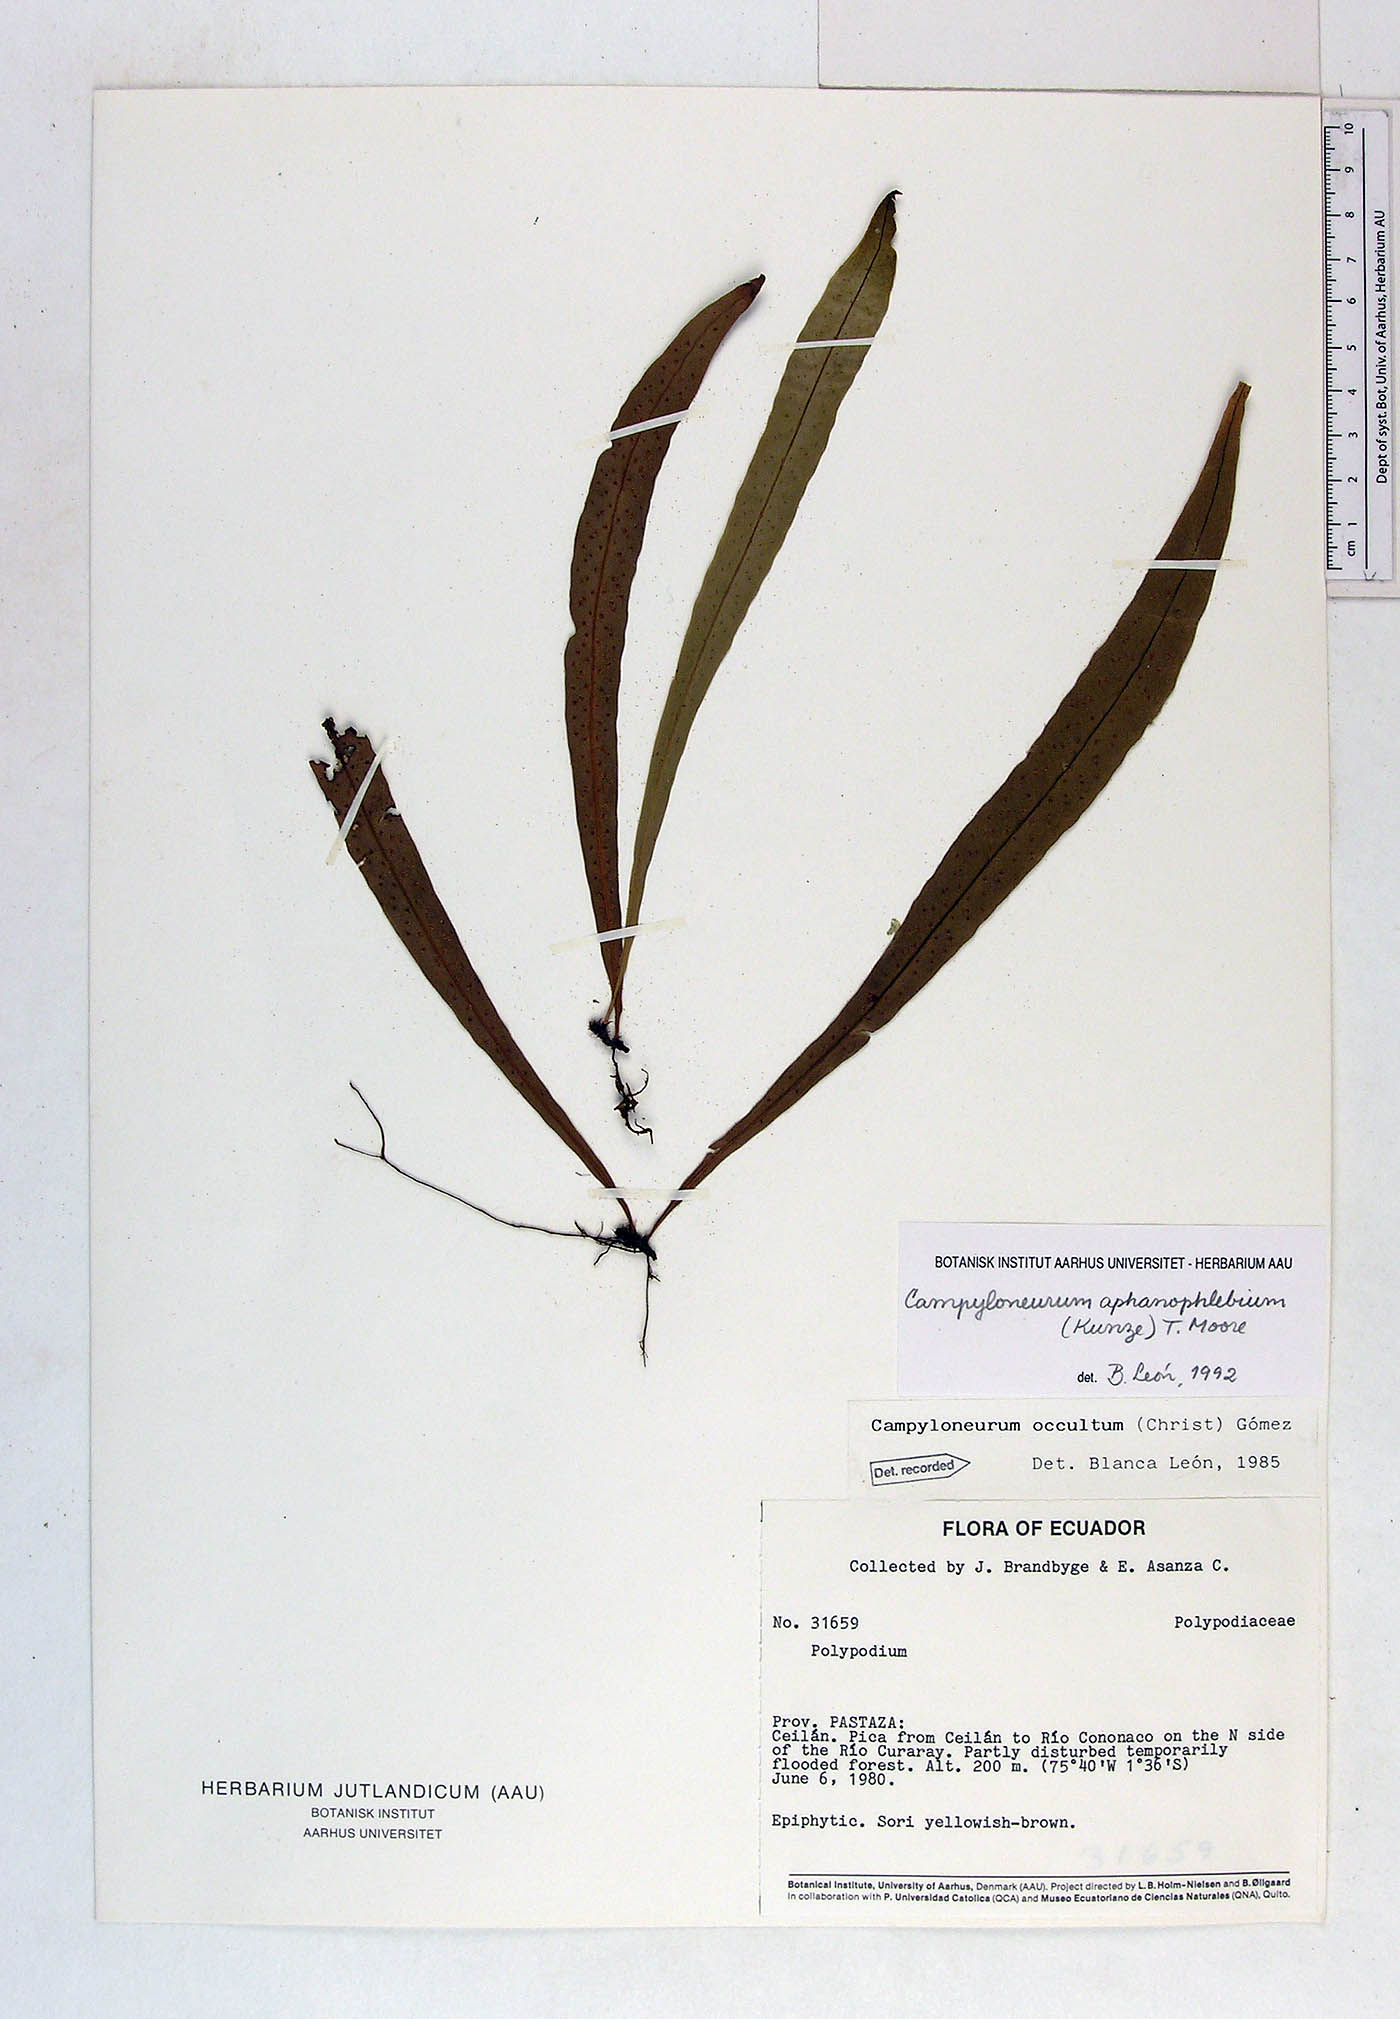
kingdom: Plantae
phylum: Tracheophyta
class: Polypodiopsida
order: Polypodiales
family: Polypodiaceae
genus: Campyloneurum
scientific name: Campyloneurum aphanophlebium
